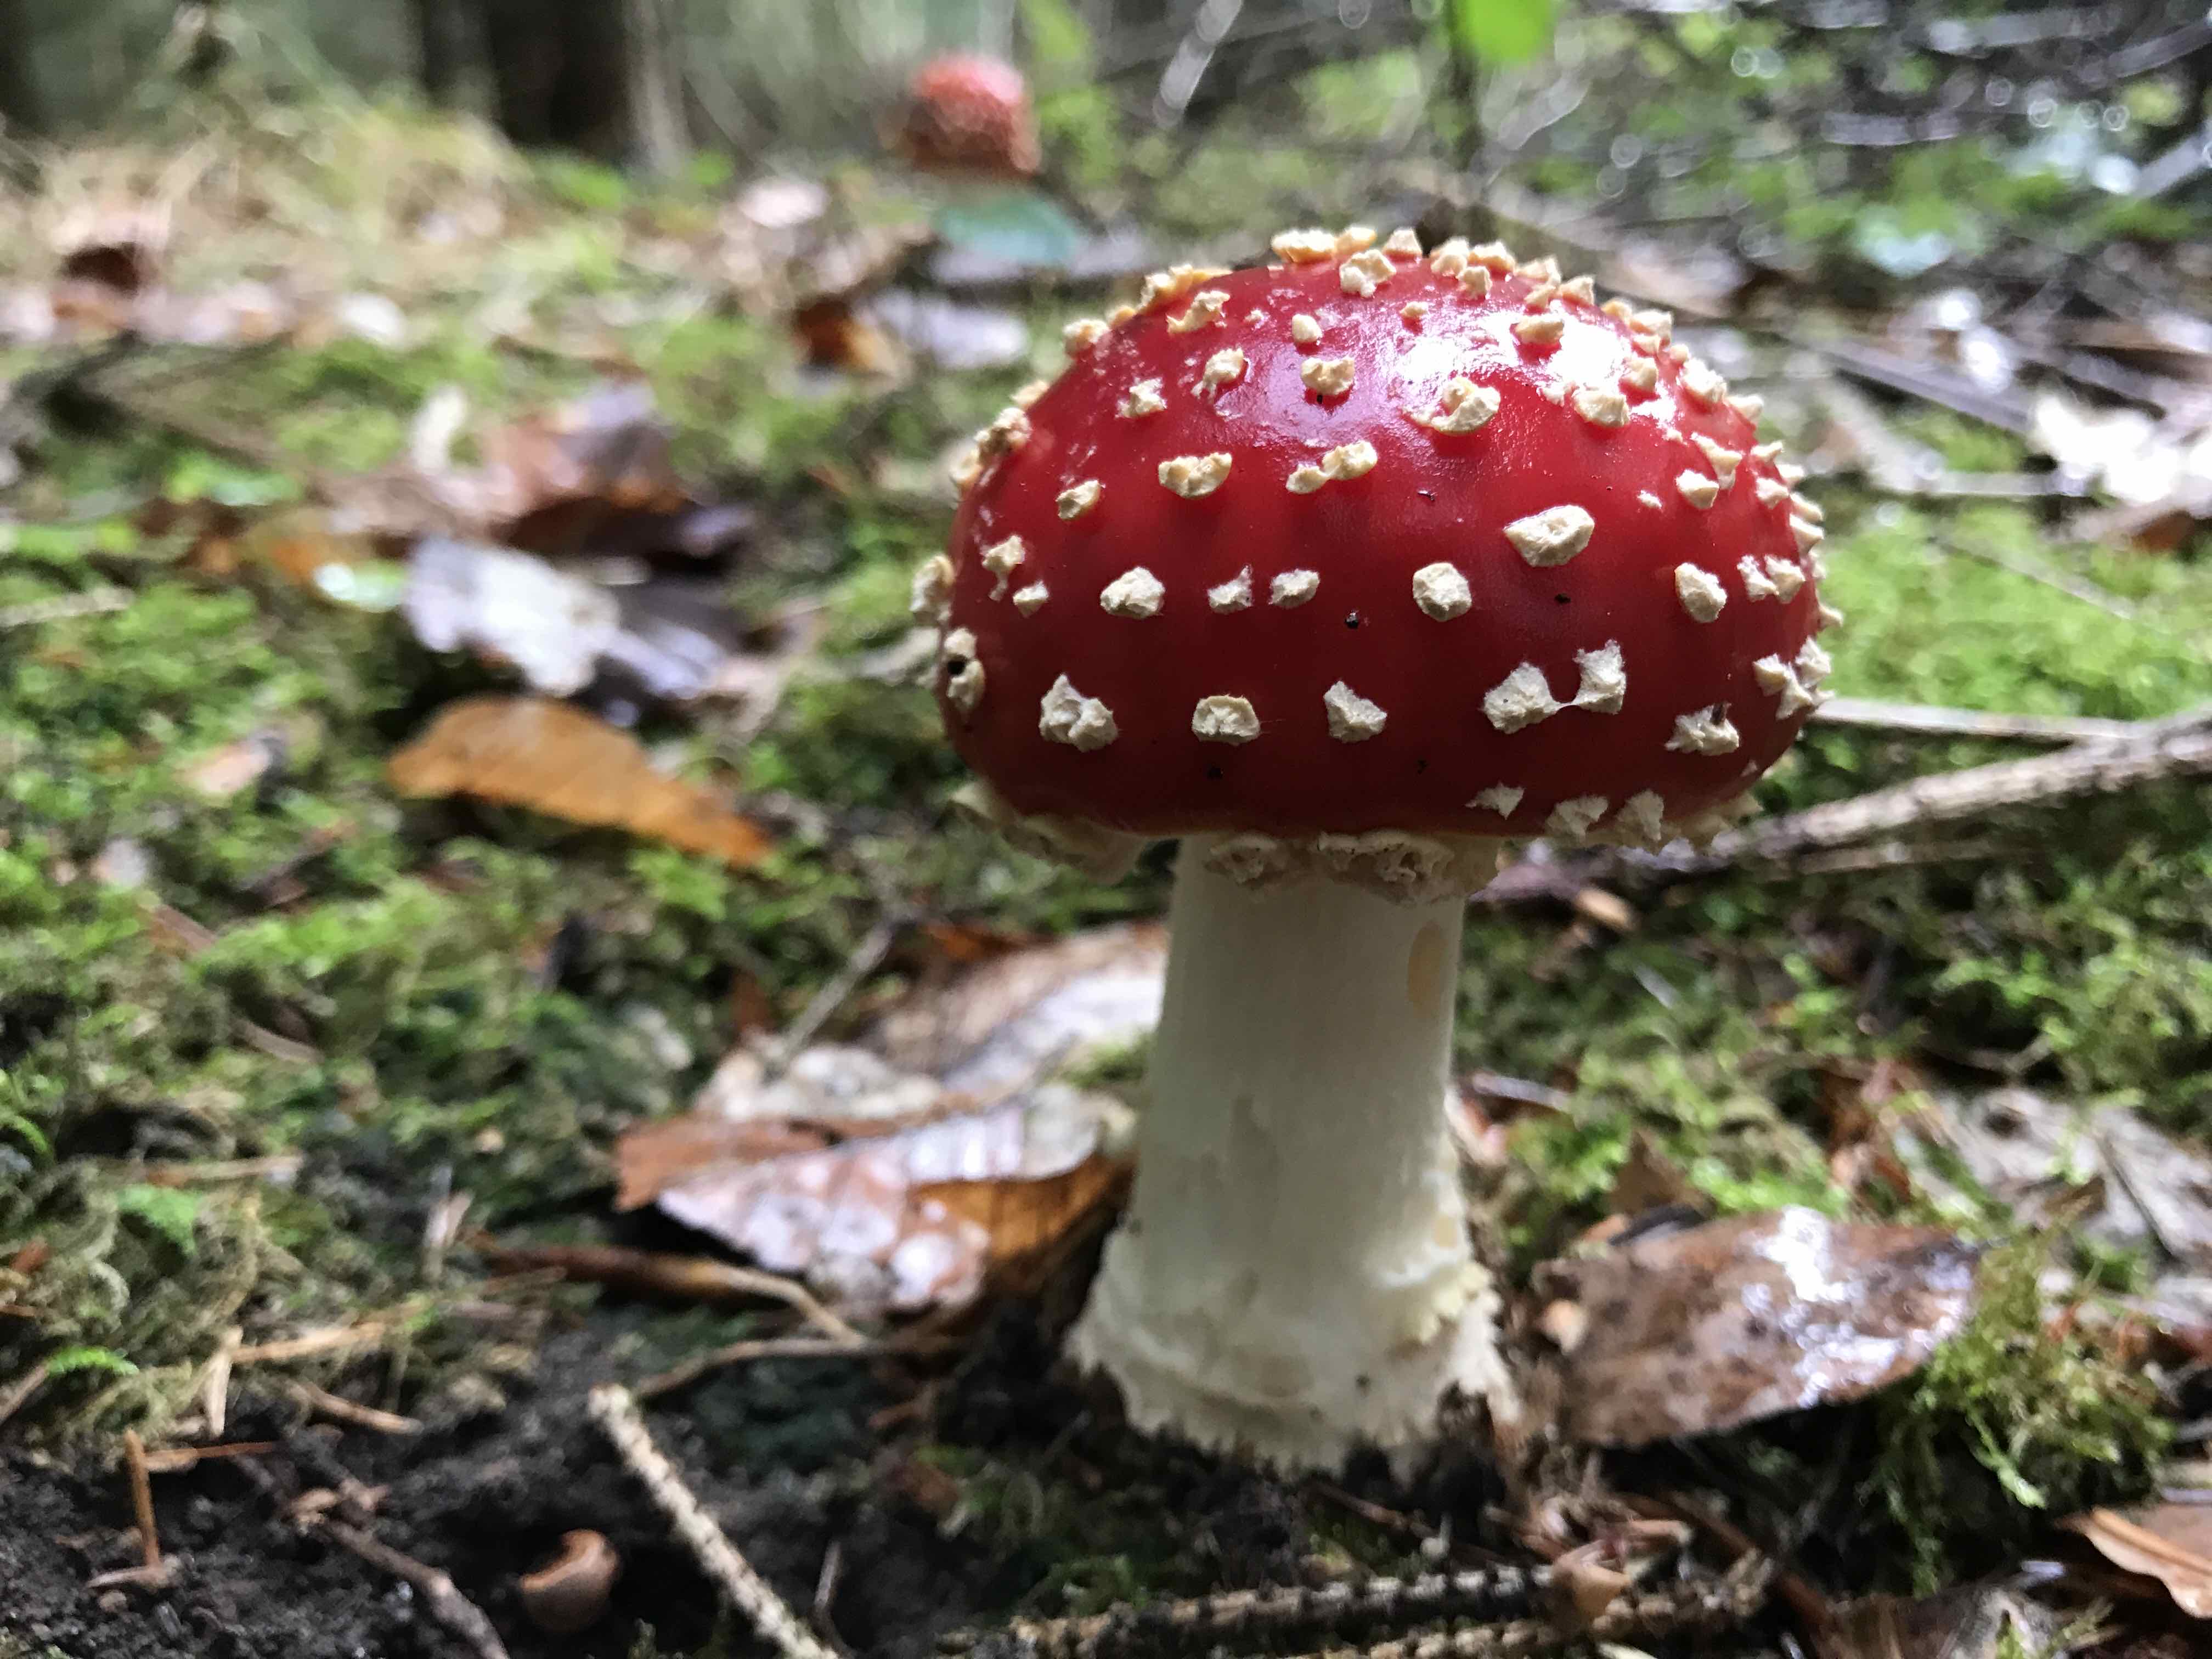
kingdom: Fungi
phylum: Basidiomycota
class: Agaricomycetes
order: Agaricales
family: Amanitaceae
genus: Amanita
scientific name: Amanita muscaria
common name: rød fluesvamp
